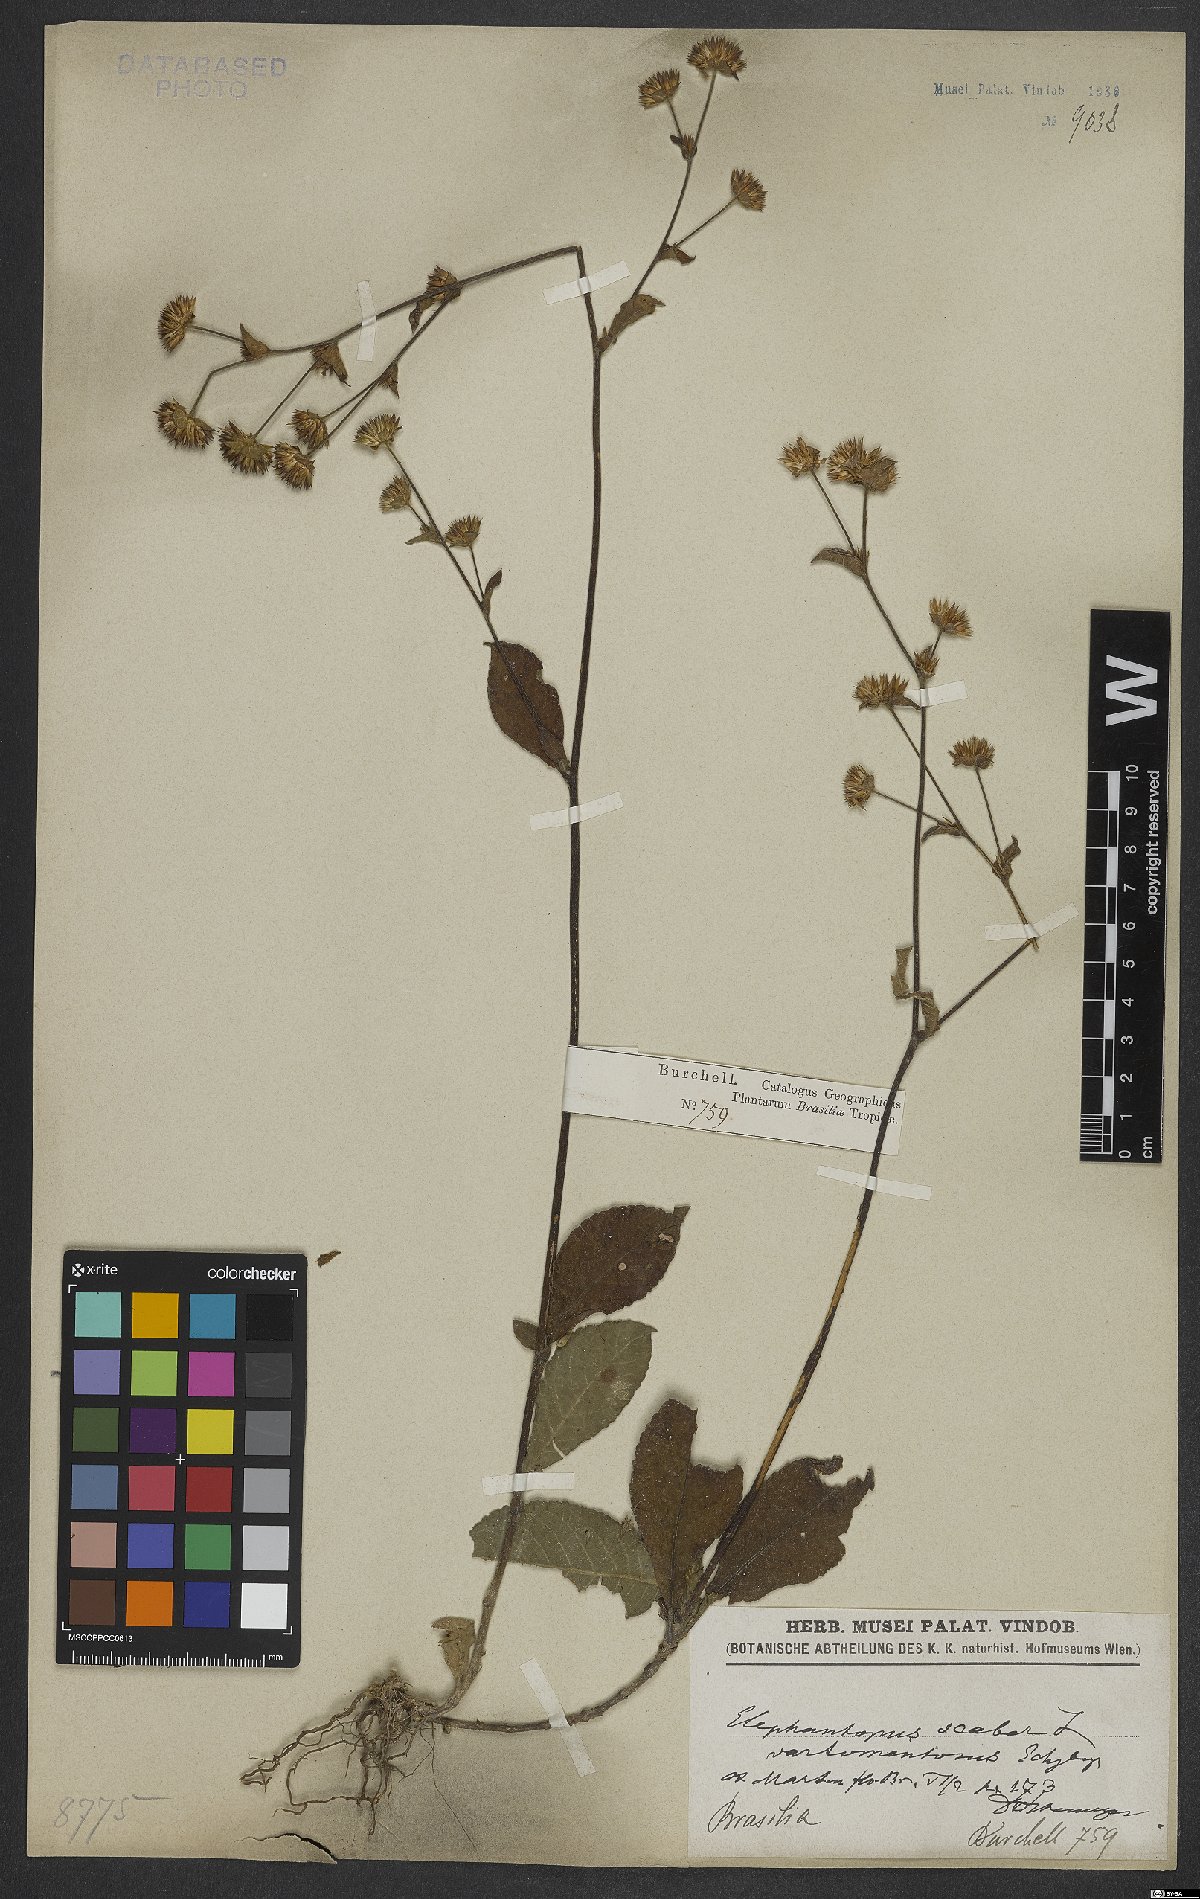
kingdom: Plantae
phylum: Tracheophyta
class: Magnoliopsida
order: Asterales
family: Asteraceae
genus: Elephantopus
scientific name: Elephantopus mollis
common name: Soft elephantsfoot
